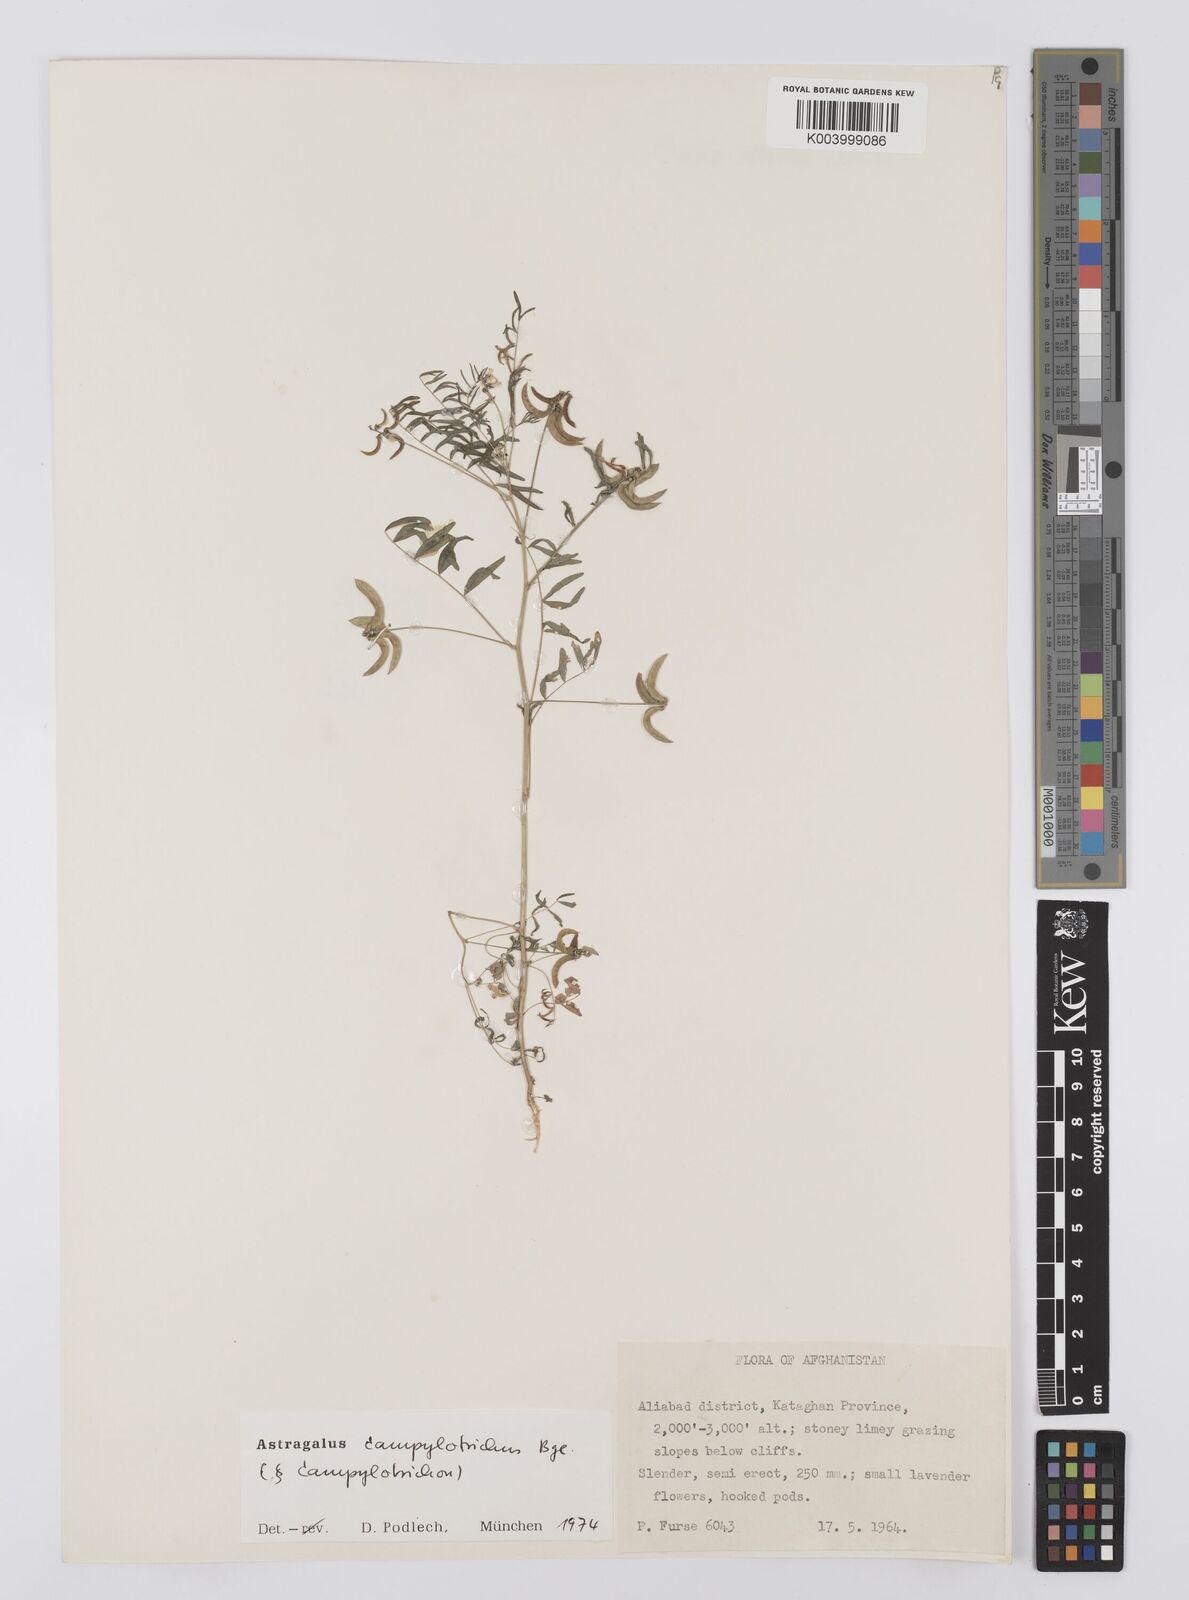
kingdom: Plantae
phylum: Tracheophyta
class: Magnoliopsida
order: Fabales
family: Fabaceae
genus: Astragalus
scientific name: Astragalus campylotrichus
